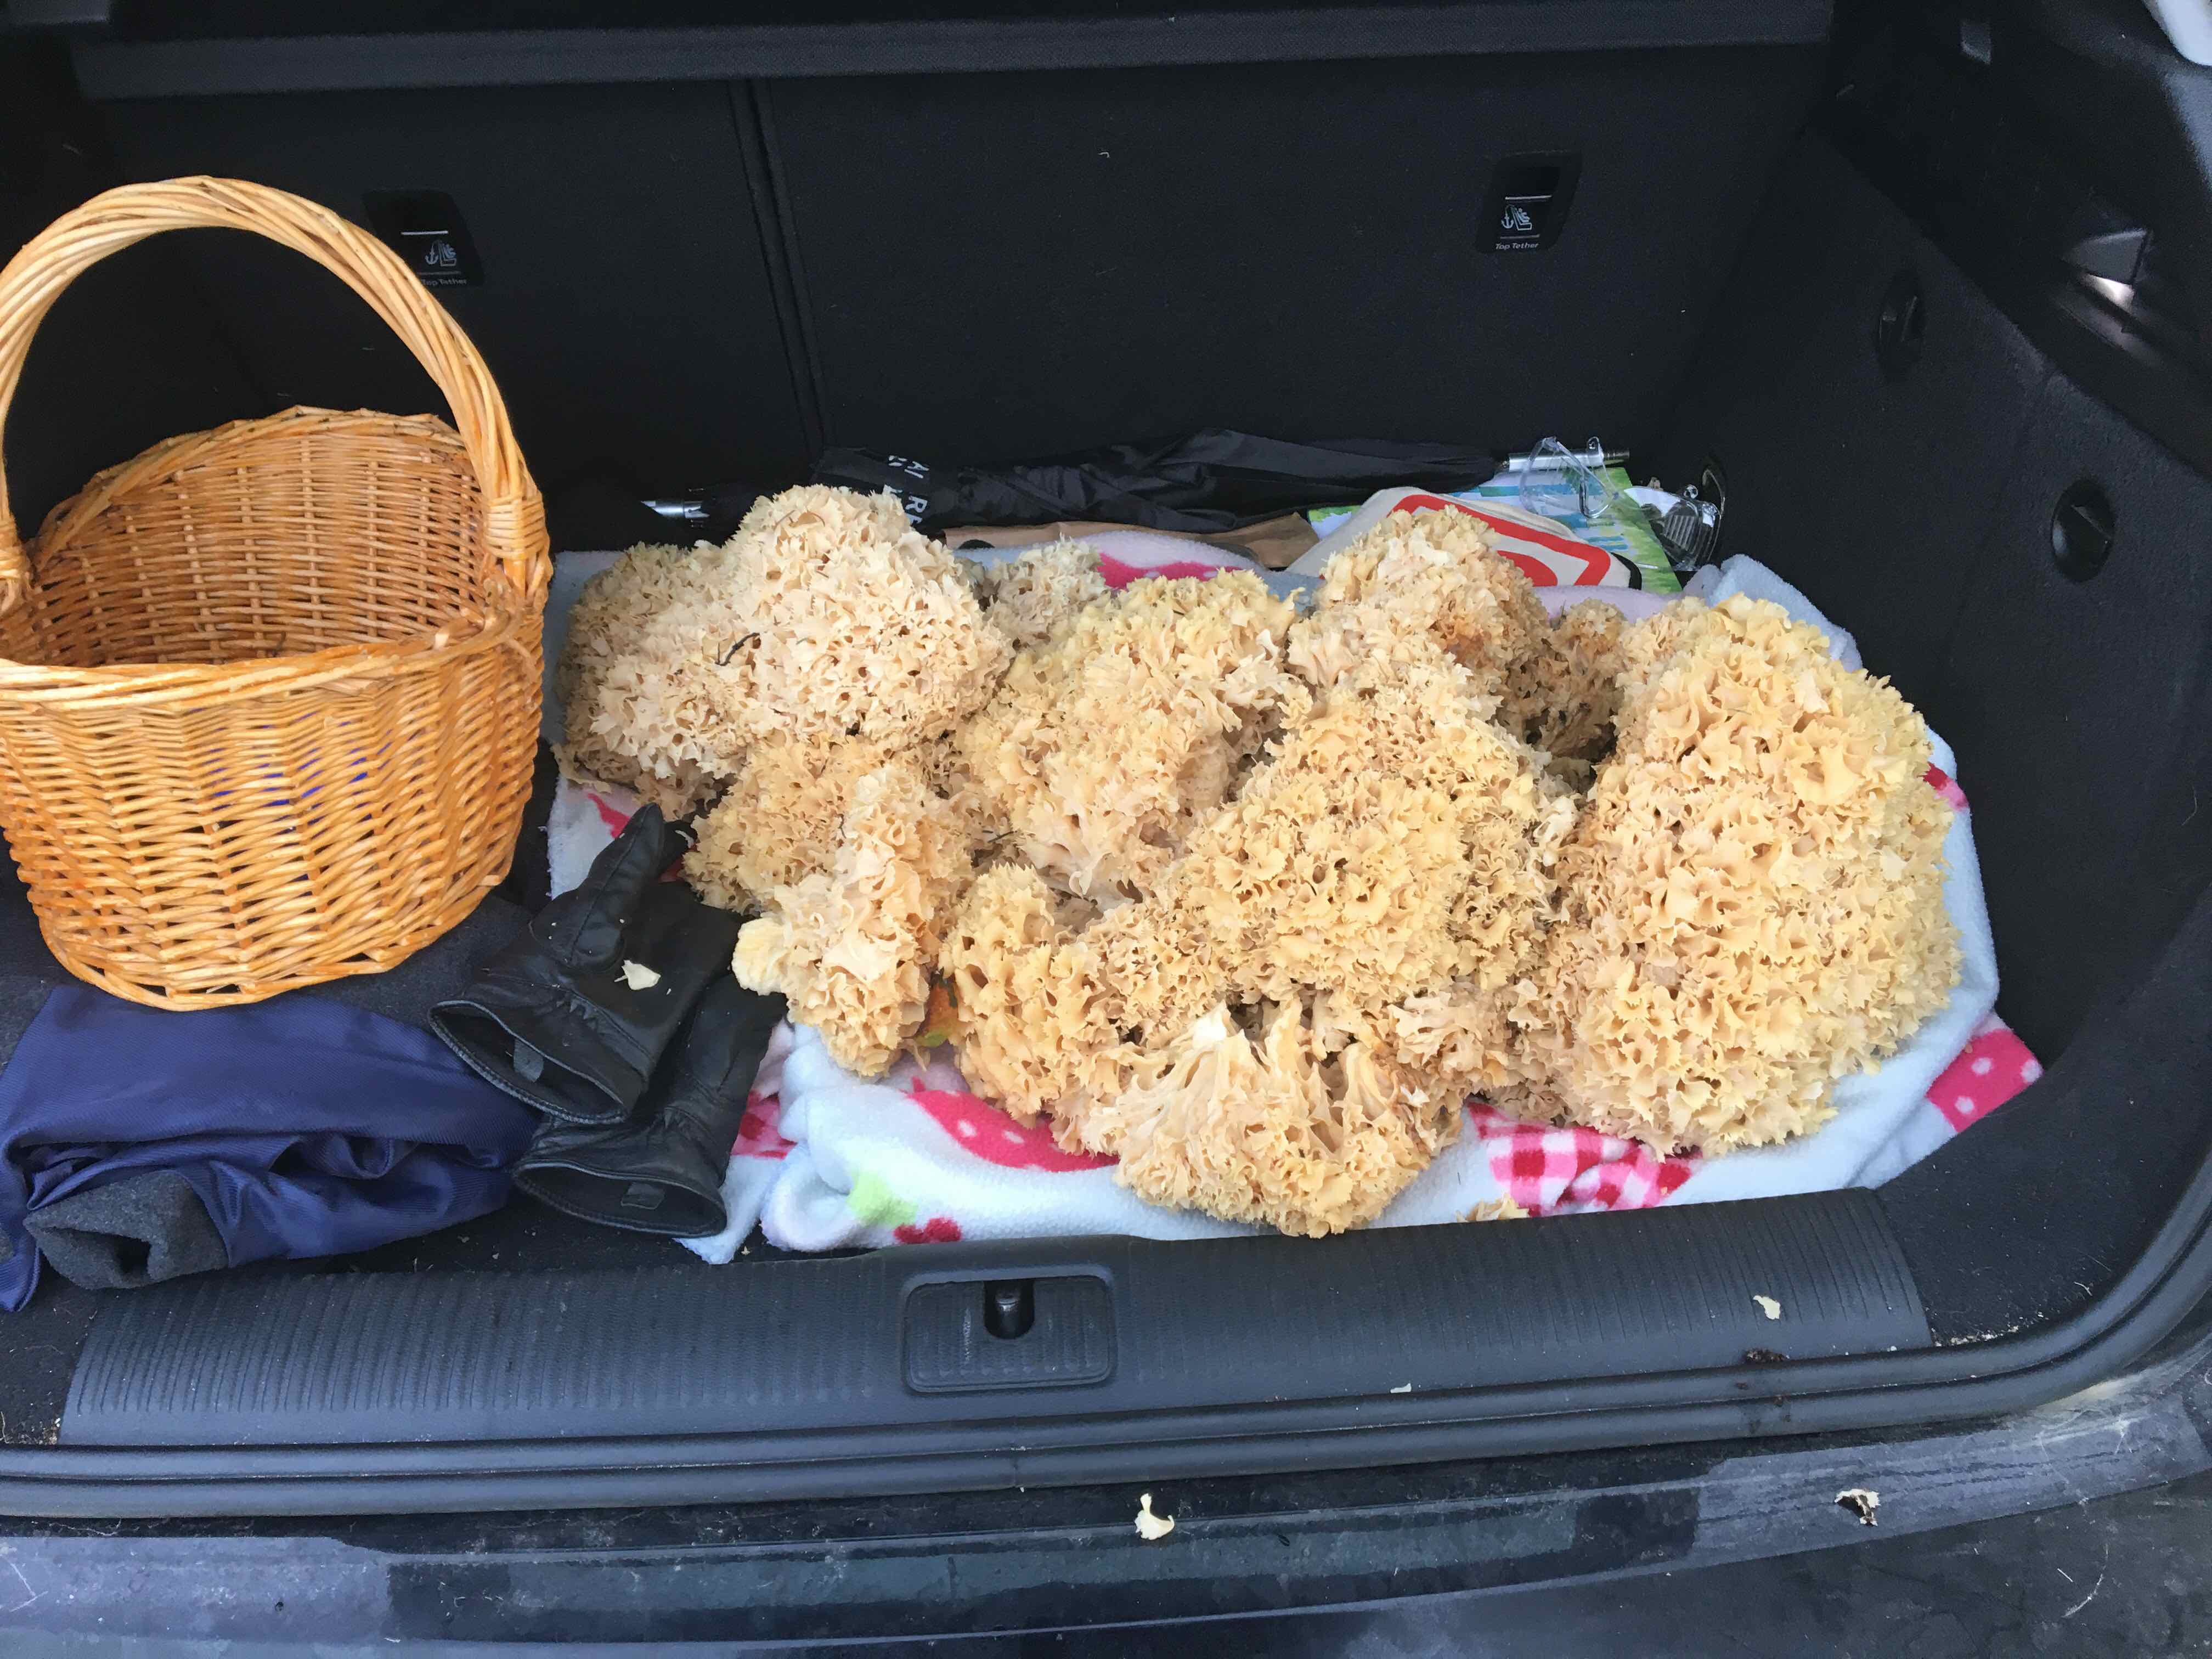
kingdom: Fungi
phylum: Basidiomycota
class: Agaricomycetes
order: Polyporales
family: Sparassidaceae
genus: Sparassis
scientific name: Sparassis crispa
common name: kruset blomkålssvamp
